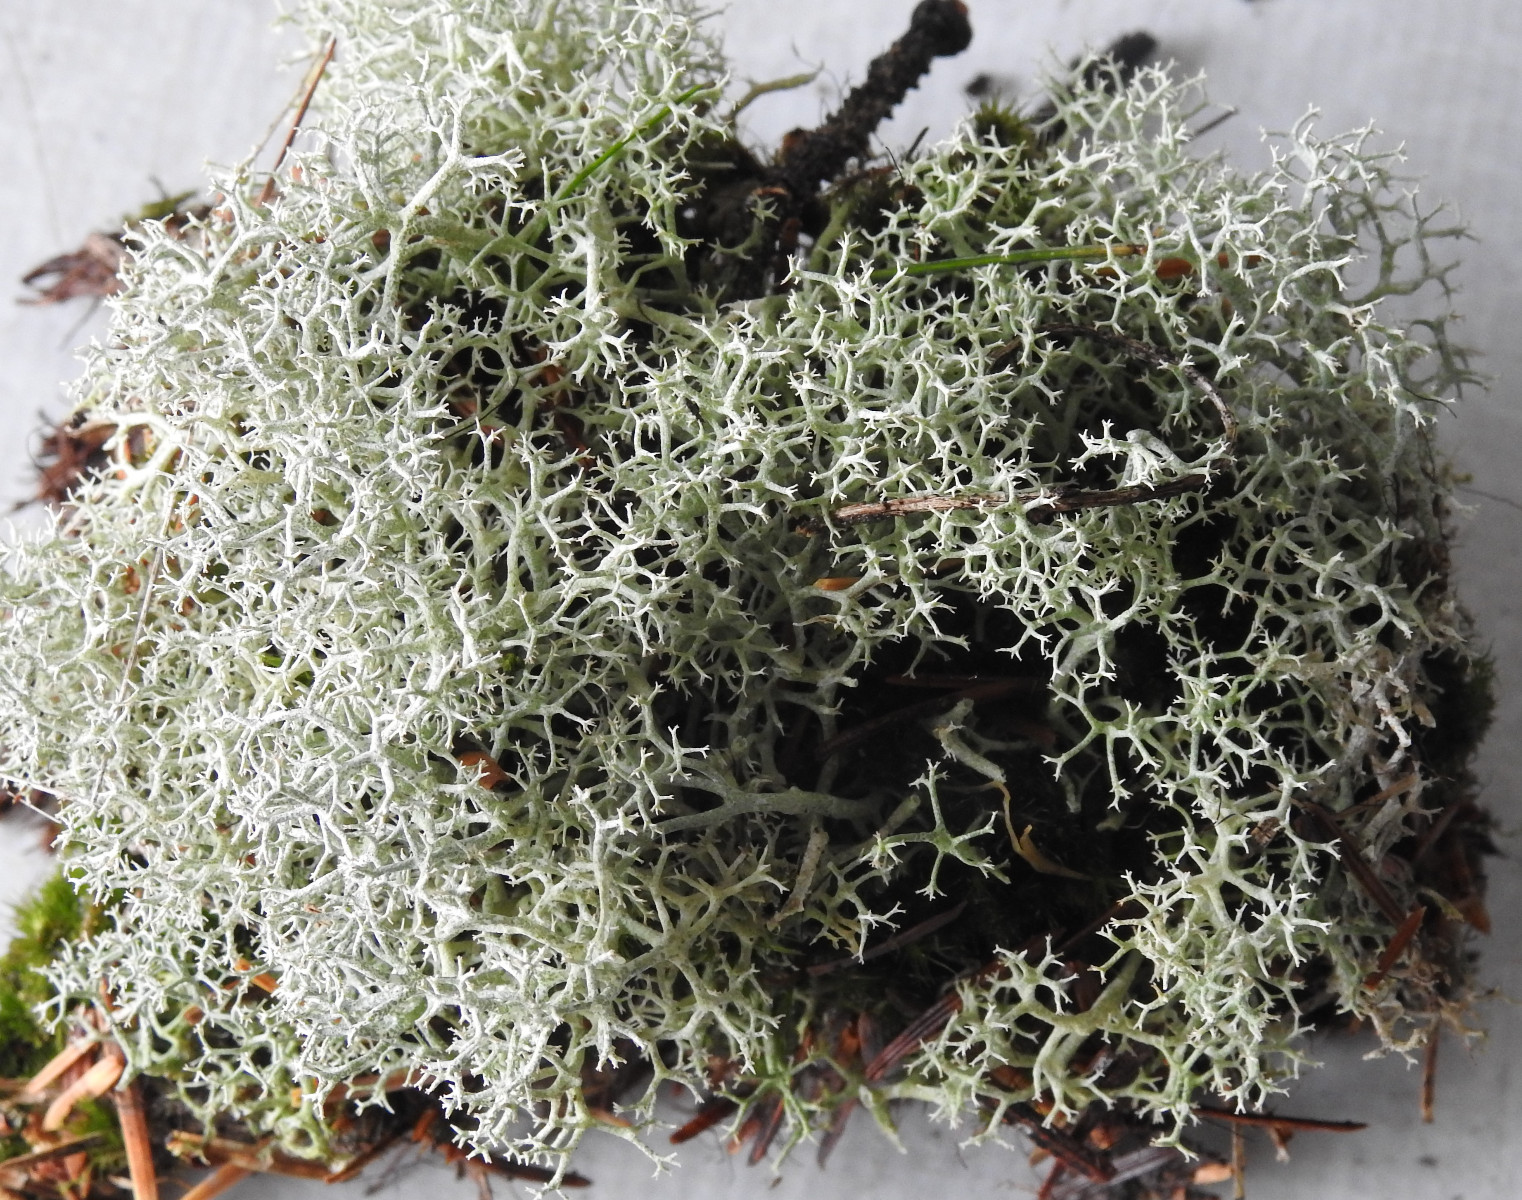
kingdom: Fungi
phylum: Ascomycota
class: Lecanoromycetes
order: Lecanorales
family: Cladoniaceae
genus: Cladonia
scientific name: Cladonia portentosa
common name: hede-rensdyrlav
